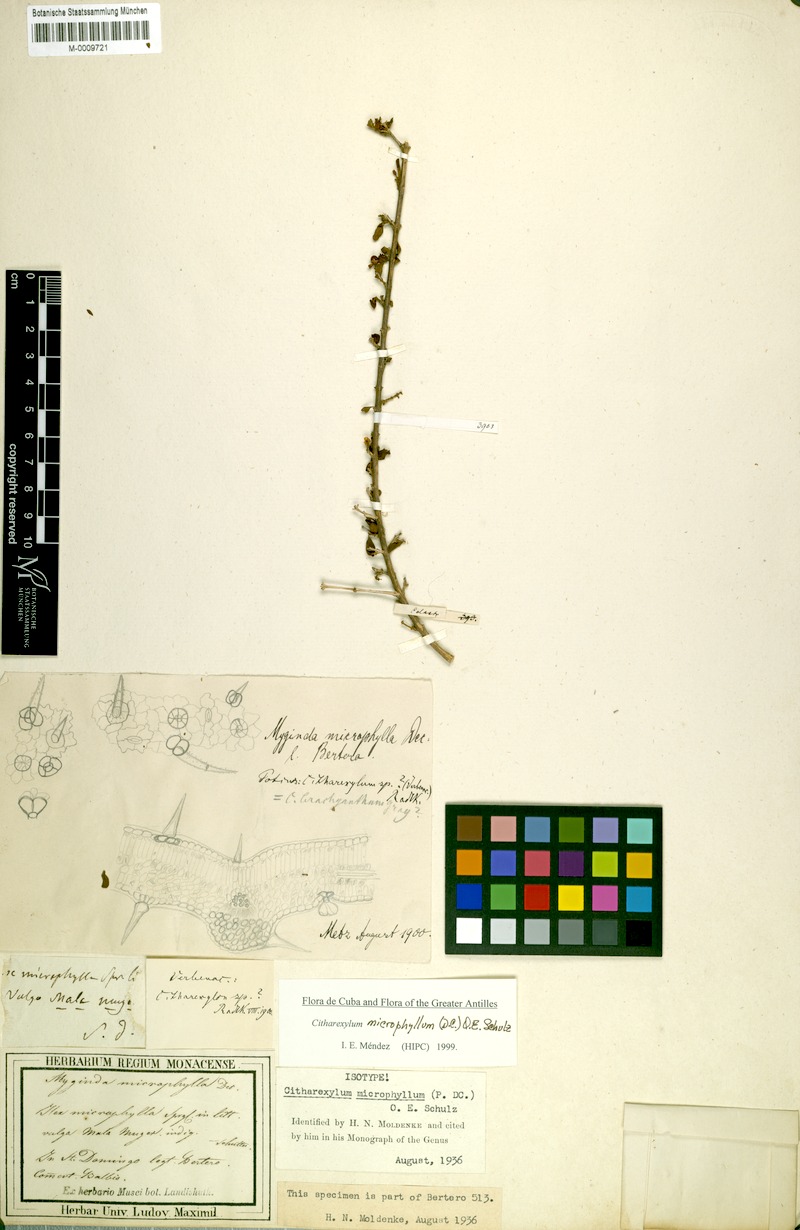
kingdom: Plantae
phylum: Tracheophyta
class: Magnoliopsida
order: Lamiales
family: Verbenaceae
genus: Citharexylum
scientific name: Citharexylum microphyllum
